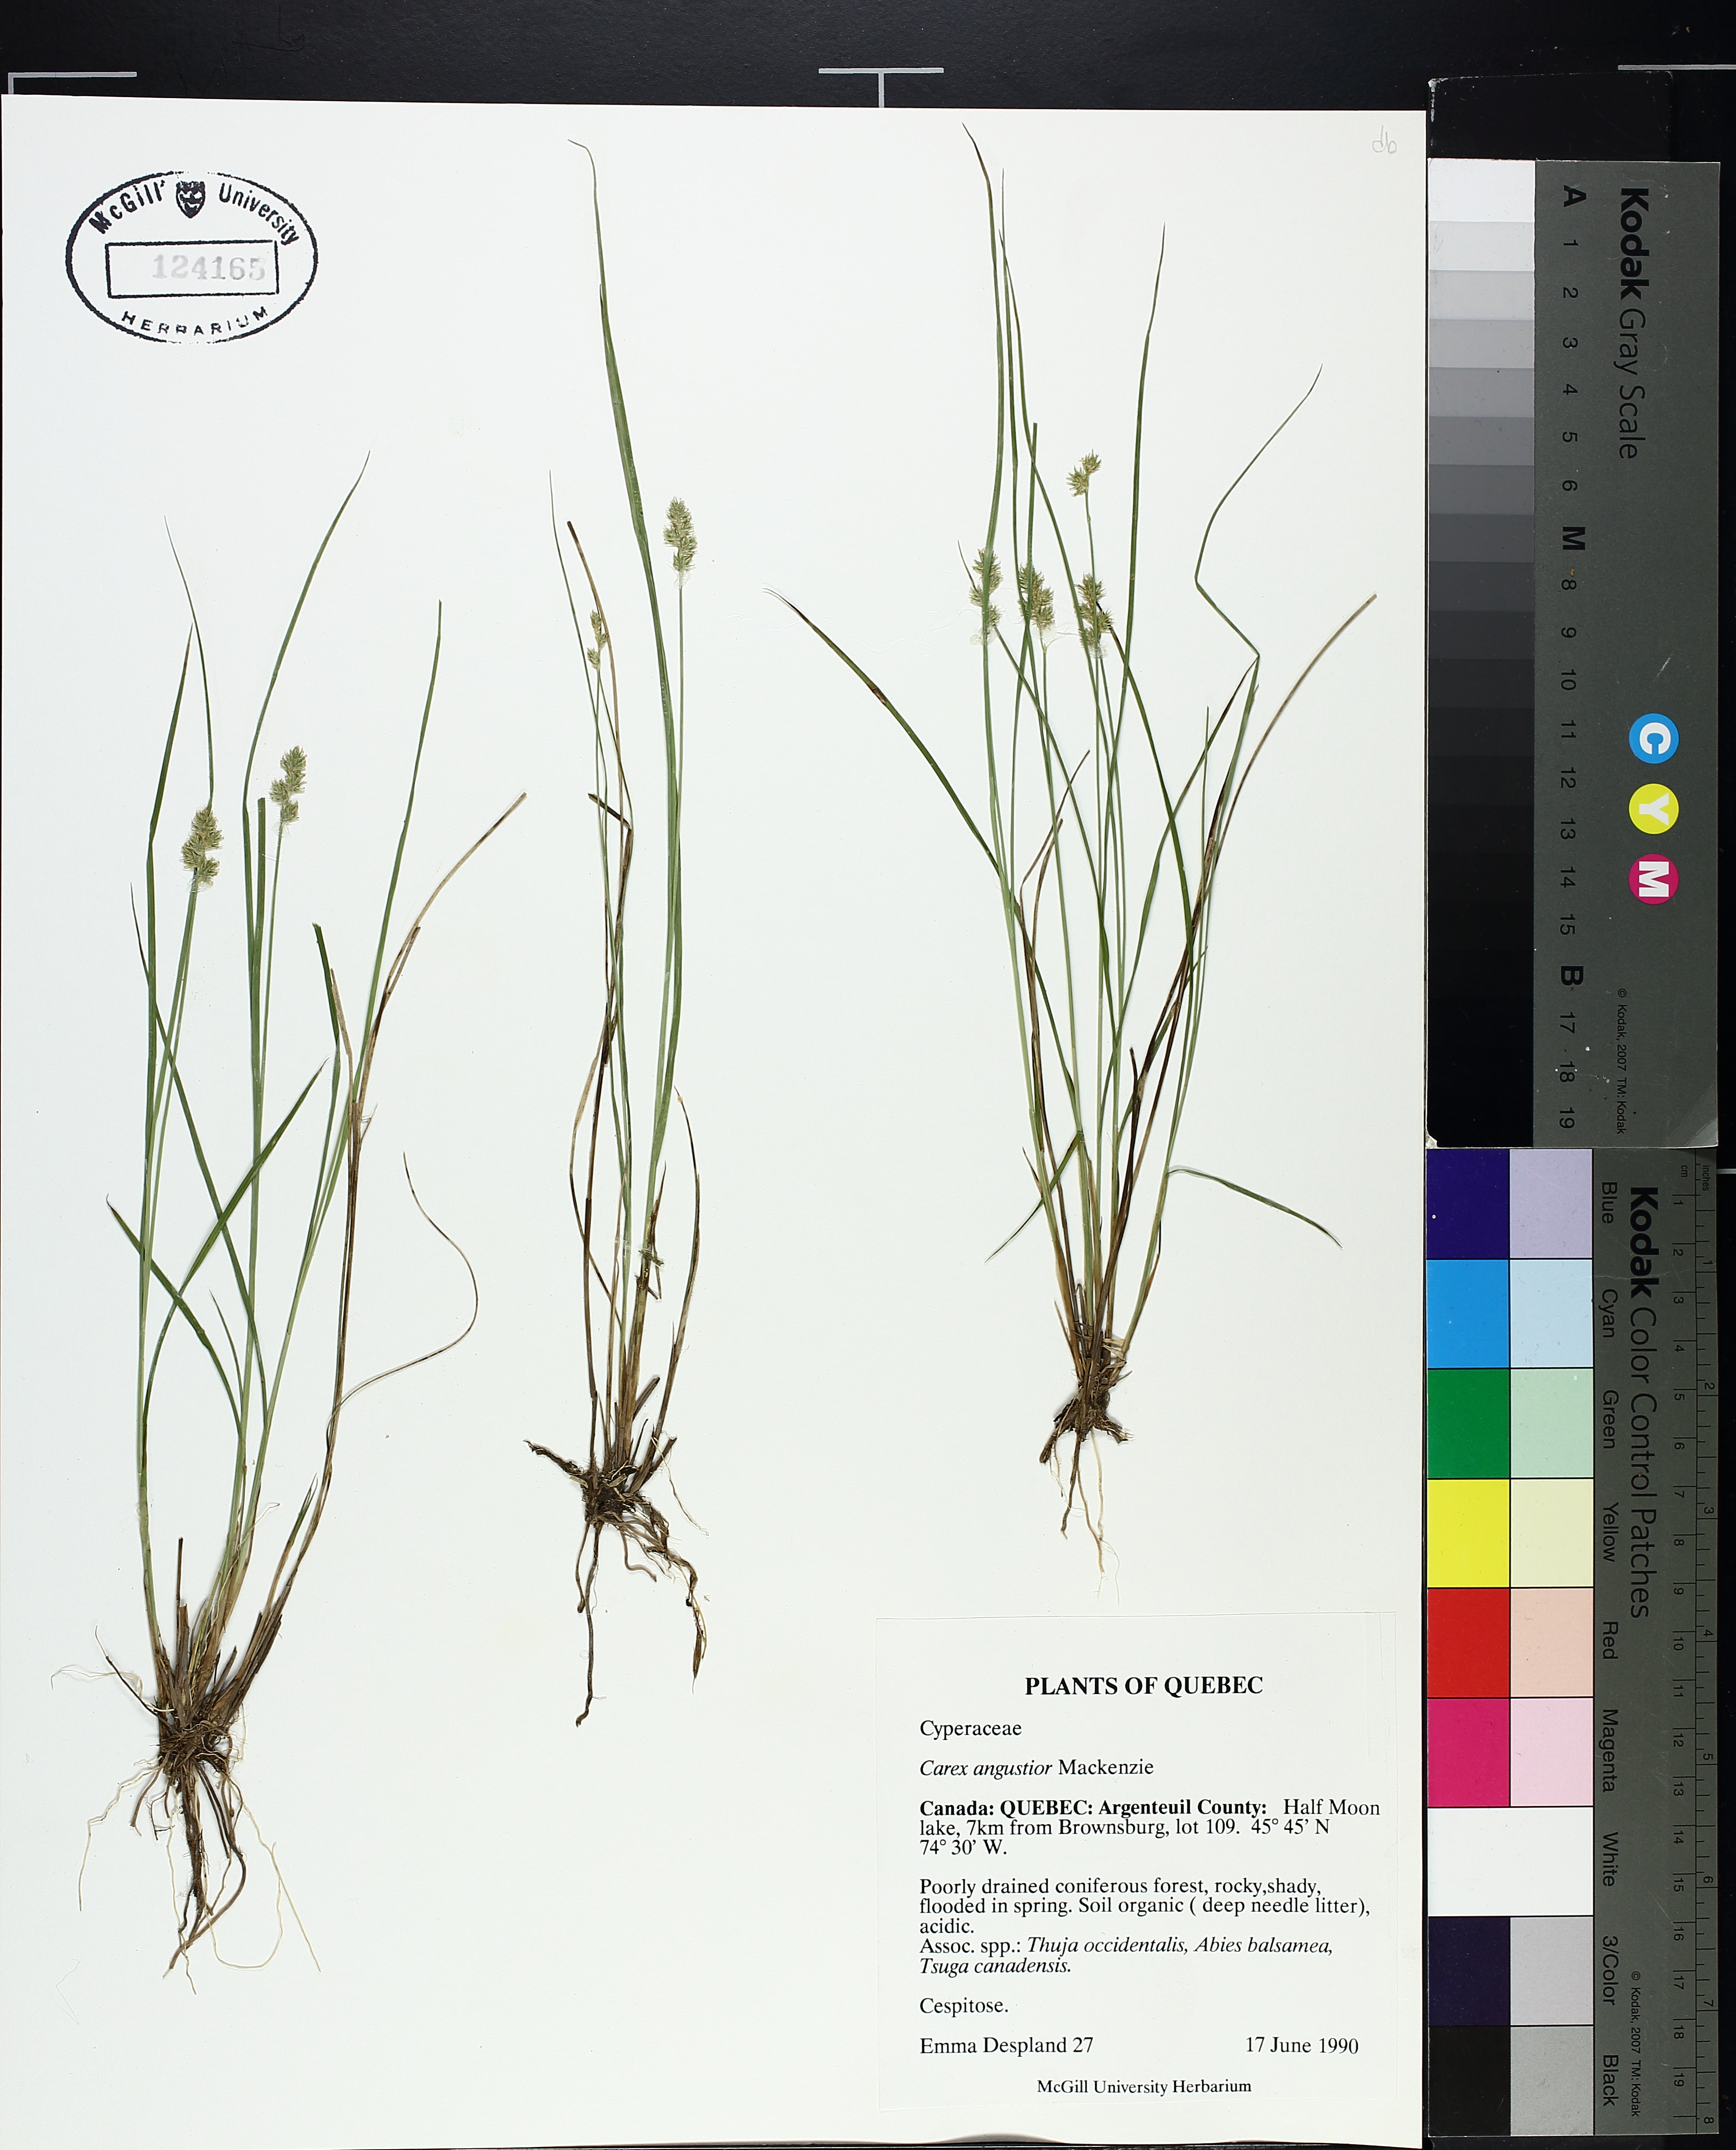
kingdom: Plantae
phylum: Tracheophyta
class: Liliopsida
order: Poales
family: Cyperaceae
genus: Carex
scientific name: Carex echinata
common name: Star sedge
